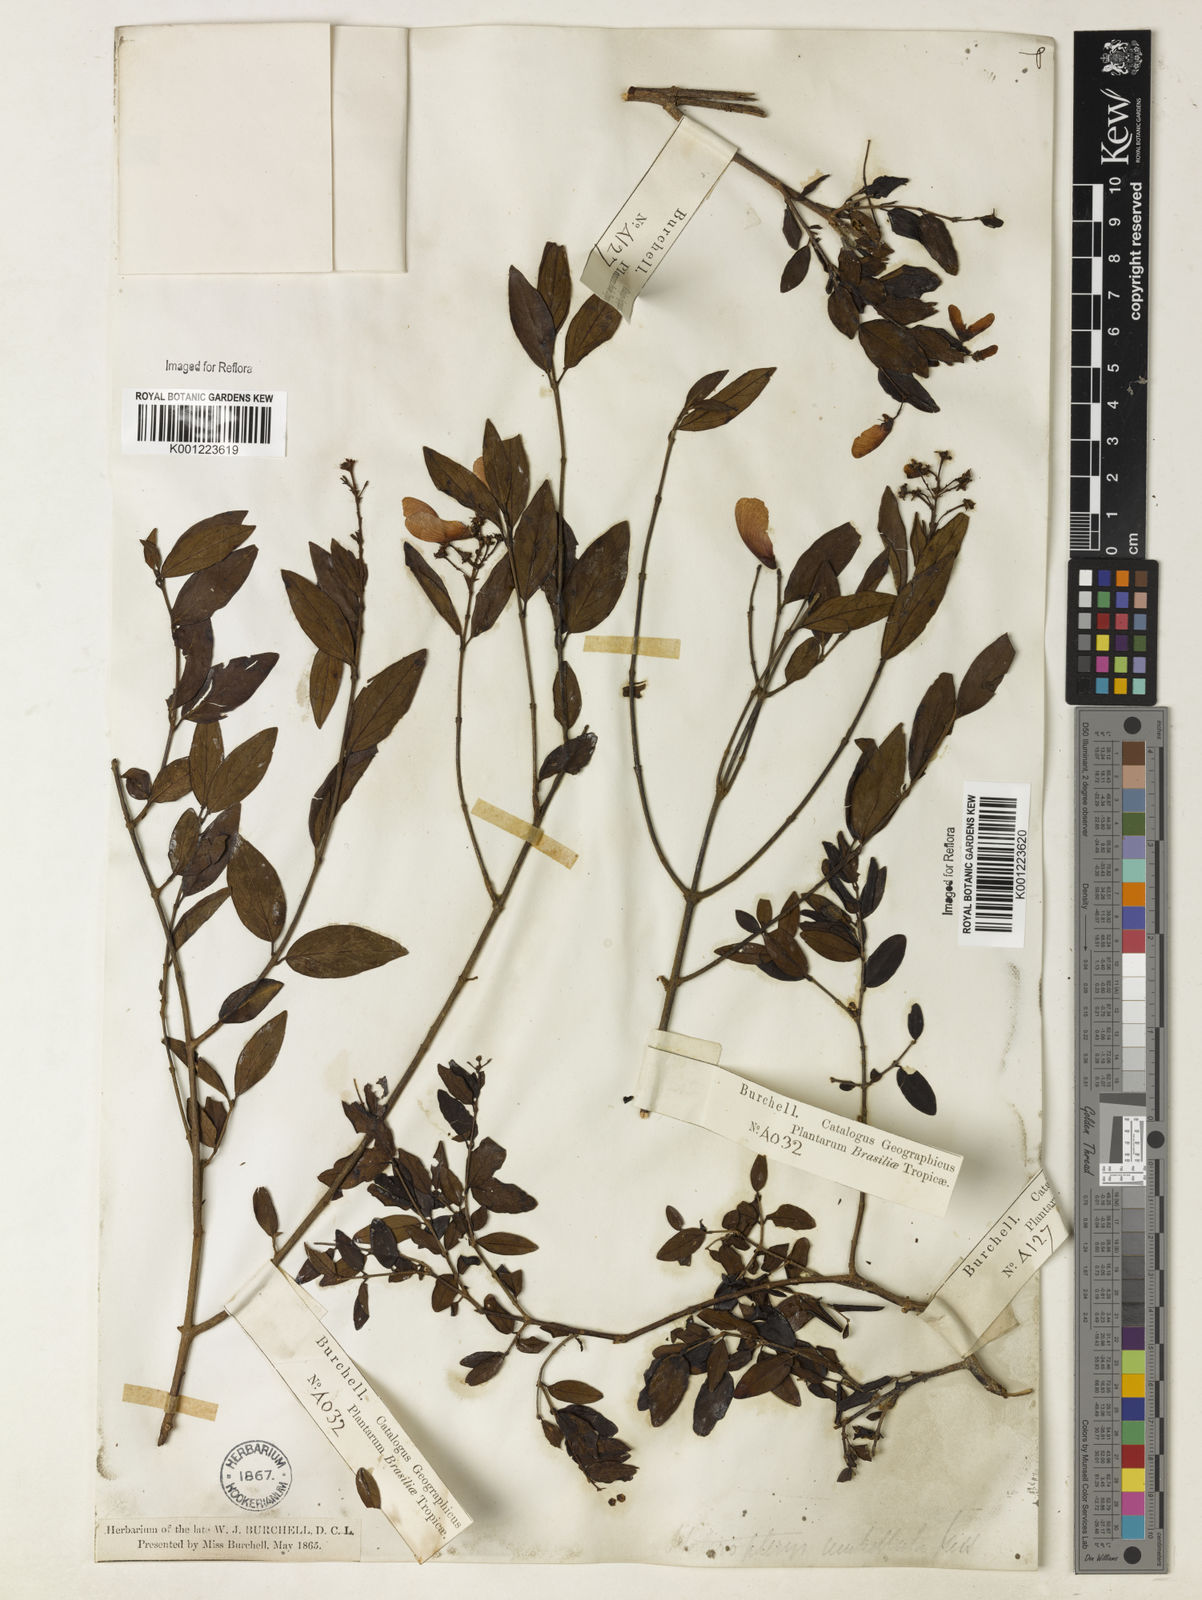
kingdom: Plantae
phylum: Tracheophyta
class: Magnoliopsida
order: Malpighiales
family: Malpighiaceae
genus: Heteropterys
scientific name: Heteropterys umbellata
